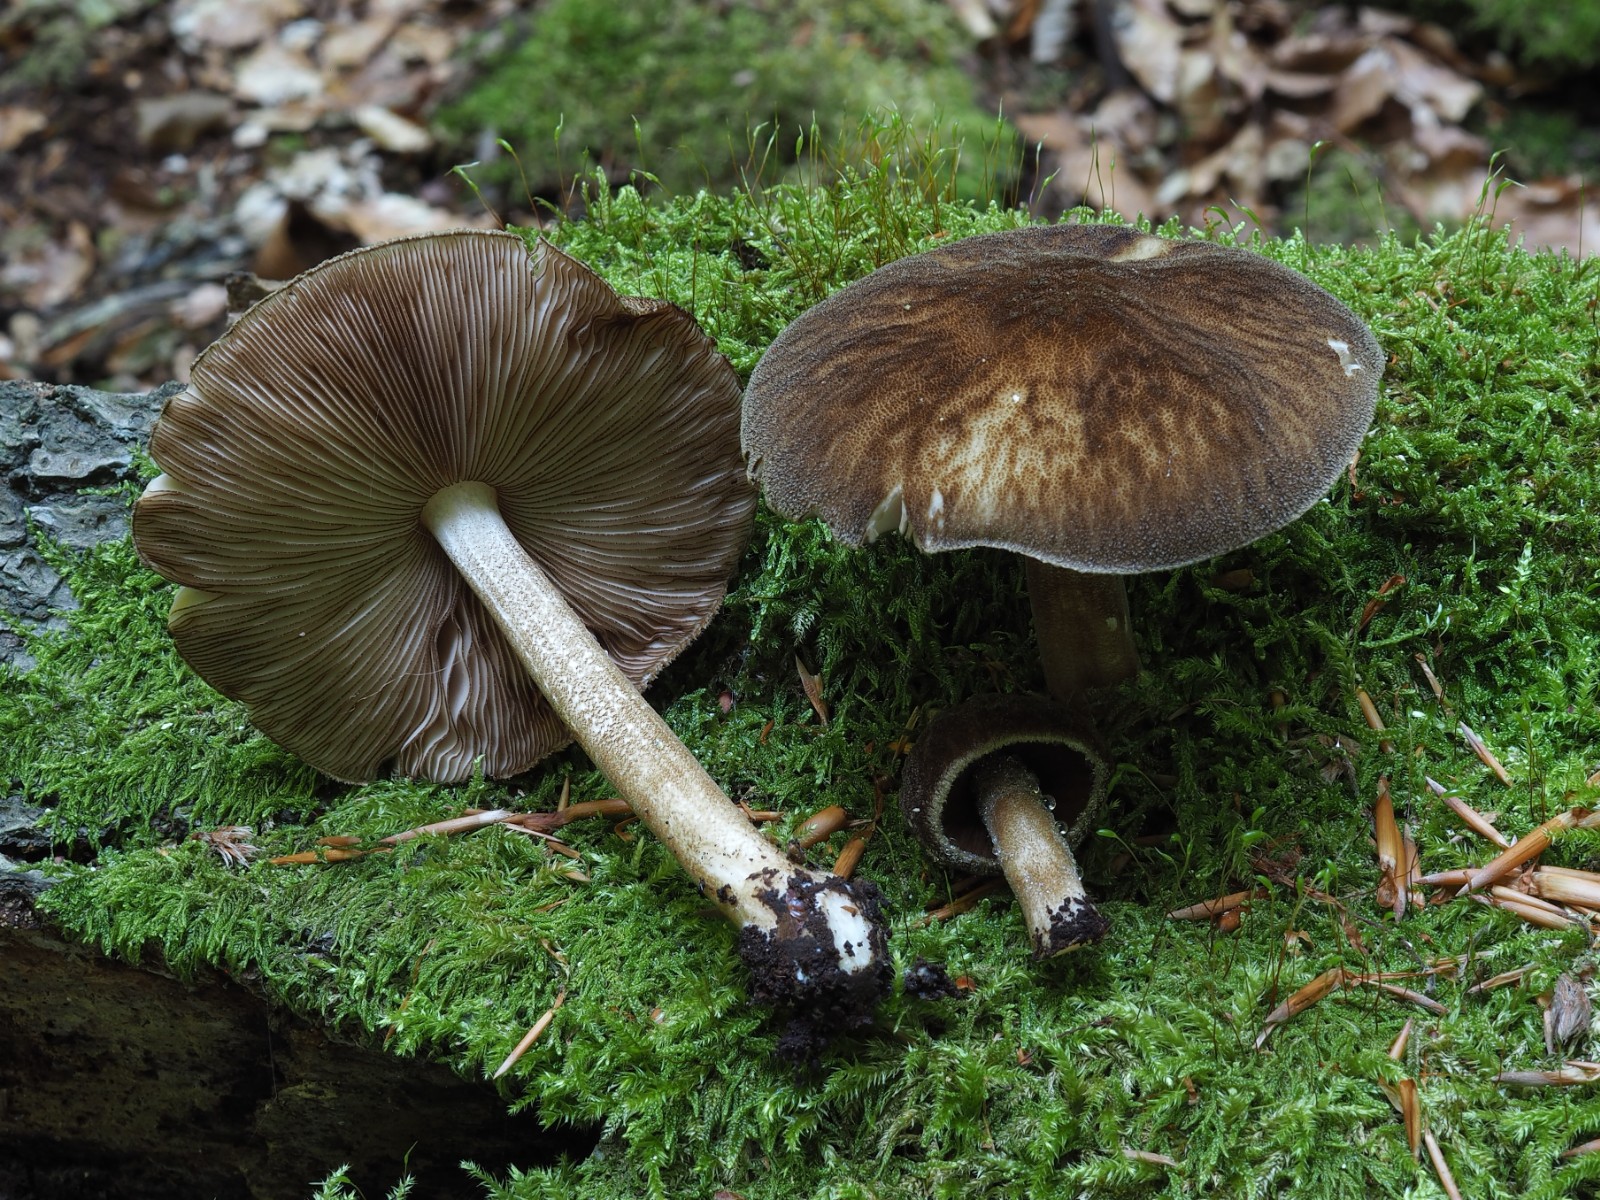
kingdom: Fungi
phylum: Basidiomycota
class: Agaricomycetes
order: Agaricales
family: Pluteaceae
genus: Pluteus
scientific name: Pluteus umbrosus
